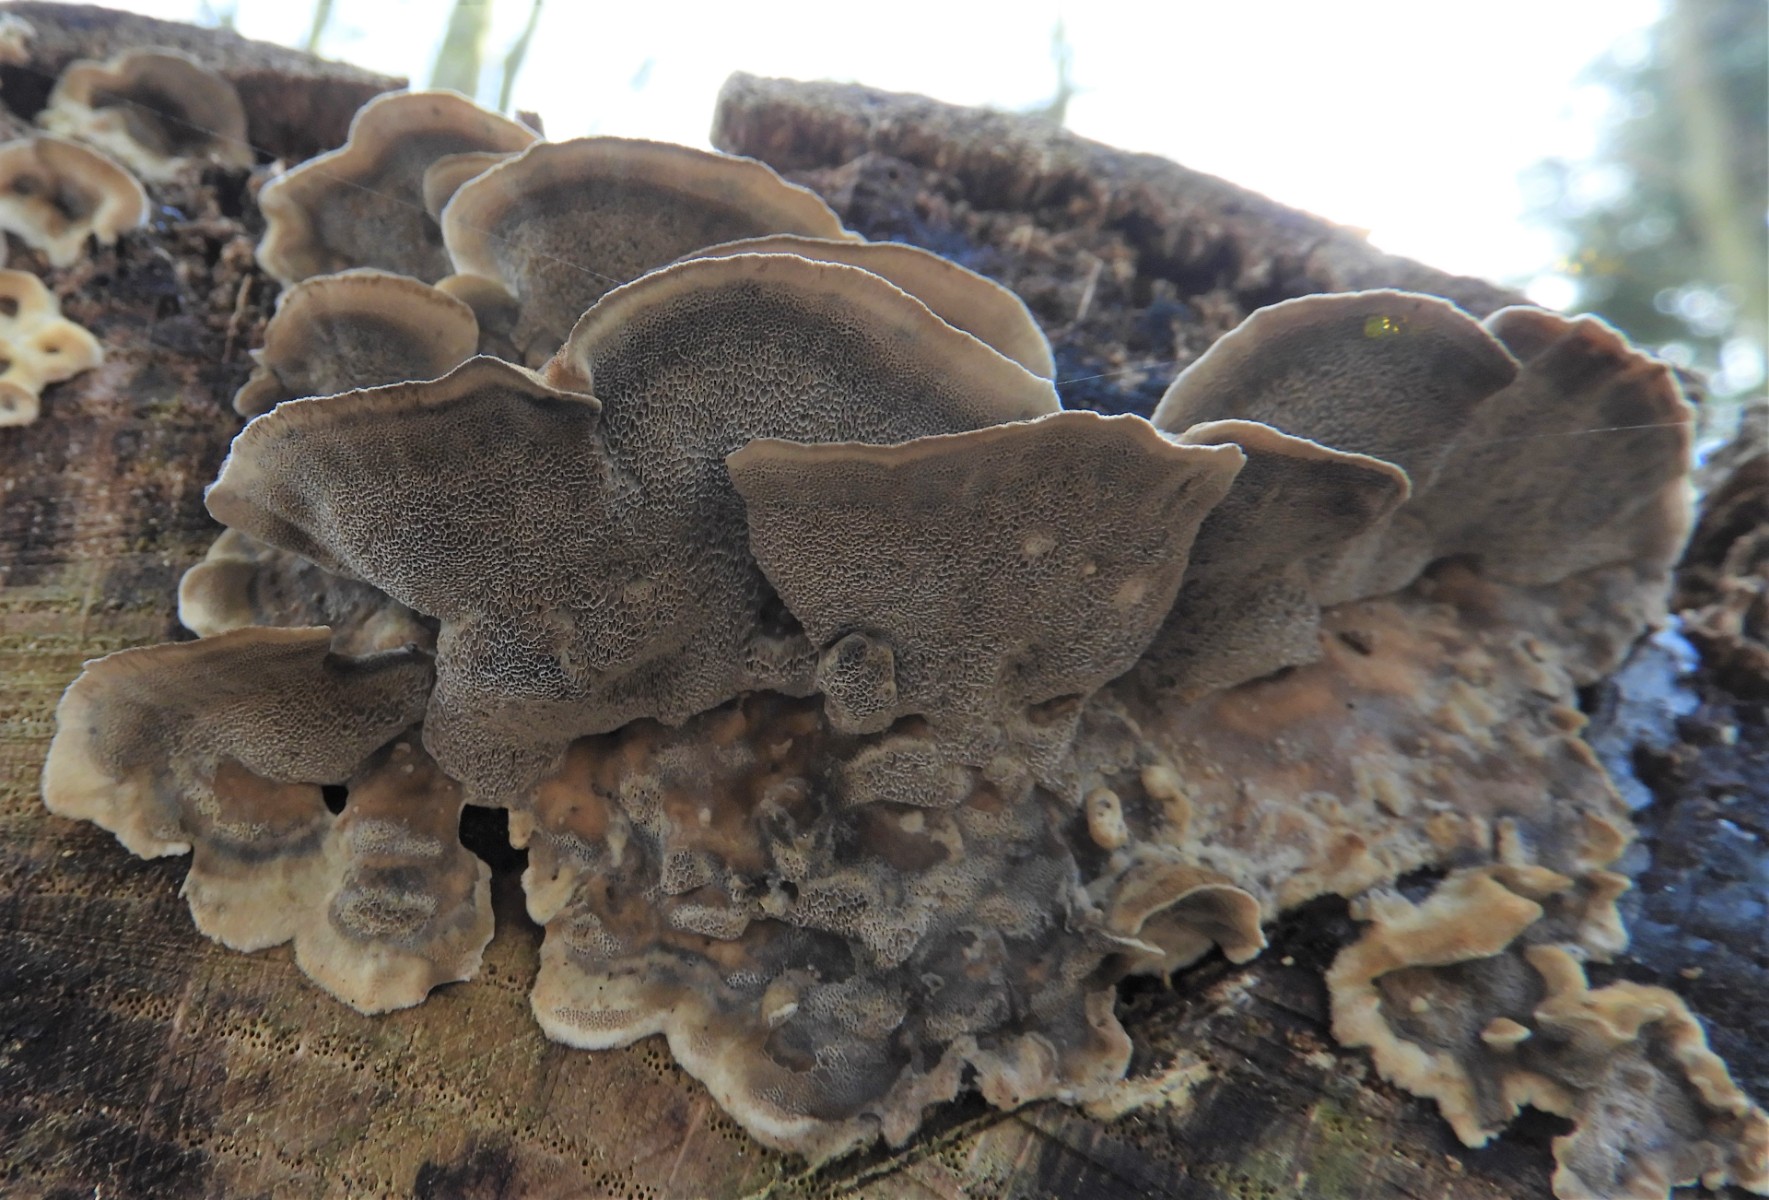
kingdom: Fungi
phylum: Basidiomycota
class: Agaricomycetes
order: Polyporales
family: Phanerochaetaceae
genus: Bjerkandera
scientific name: Bjerkandera adusta
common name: sveden sodporesvamp
